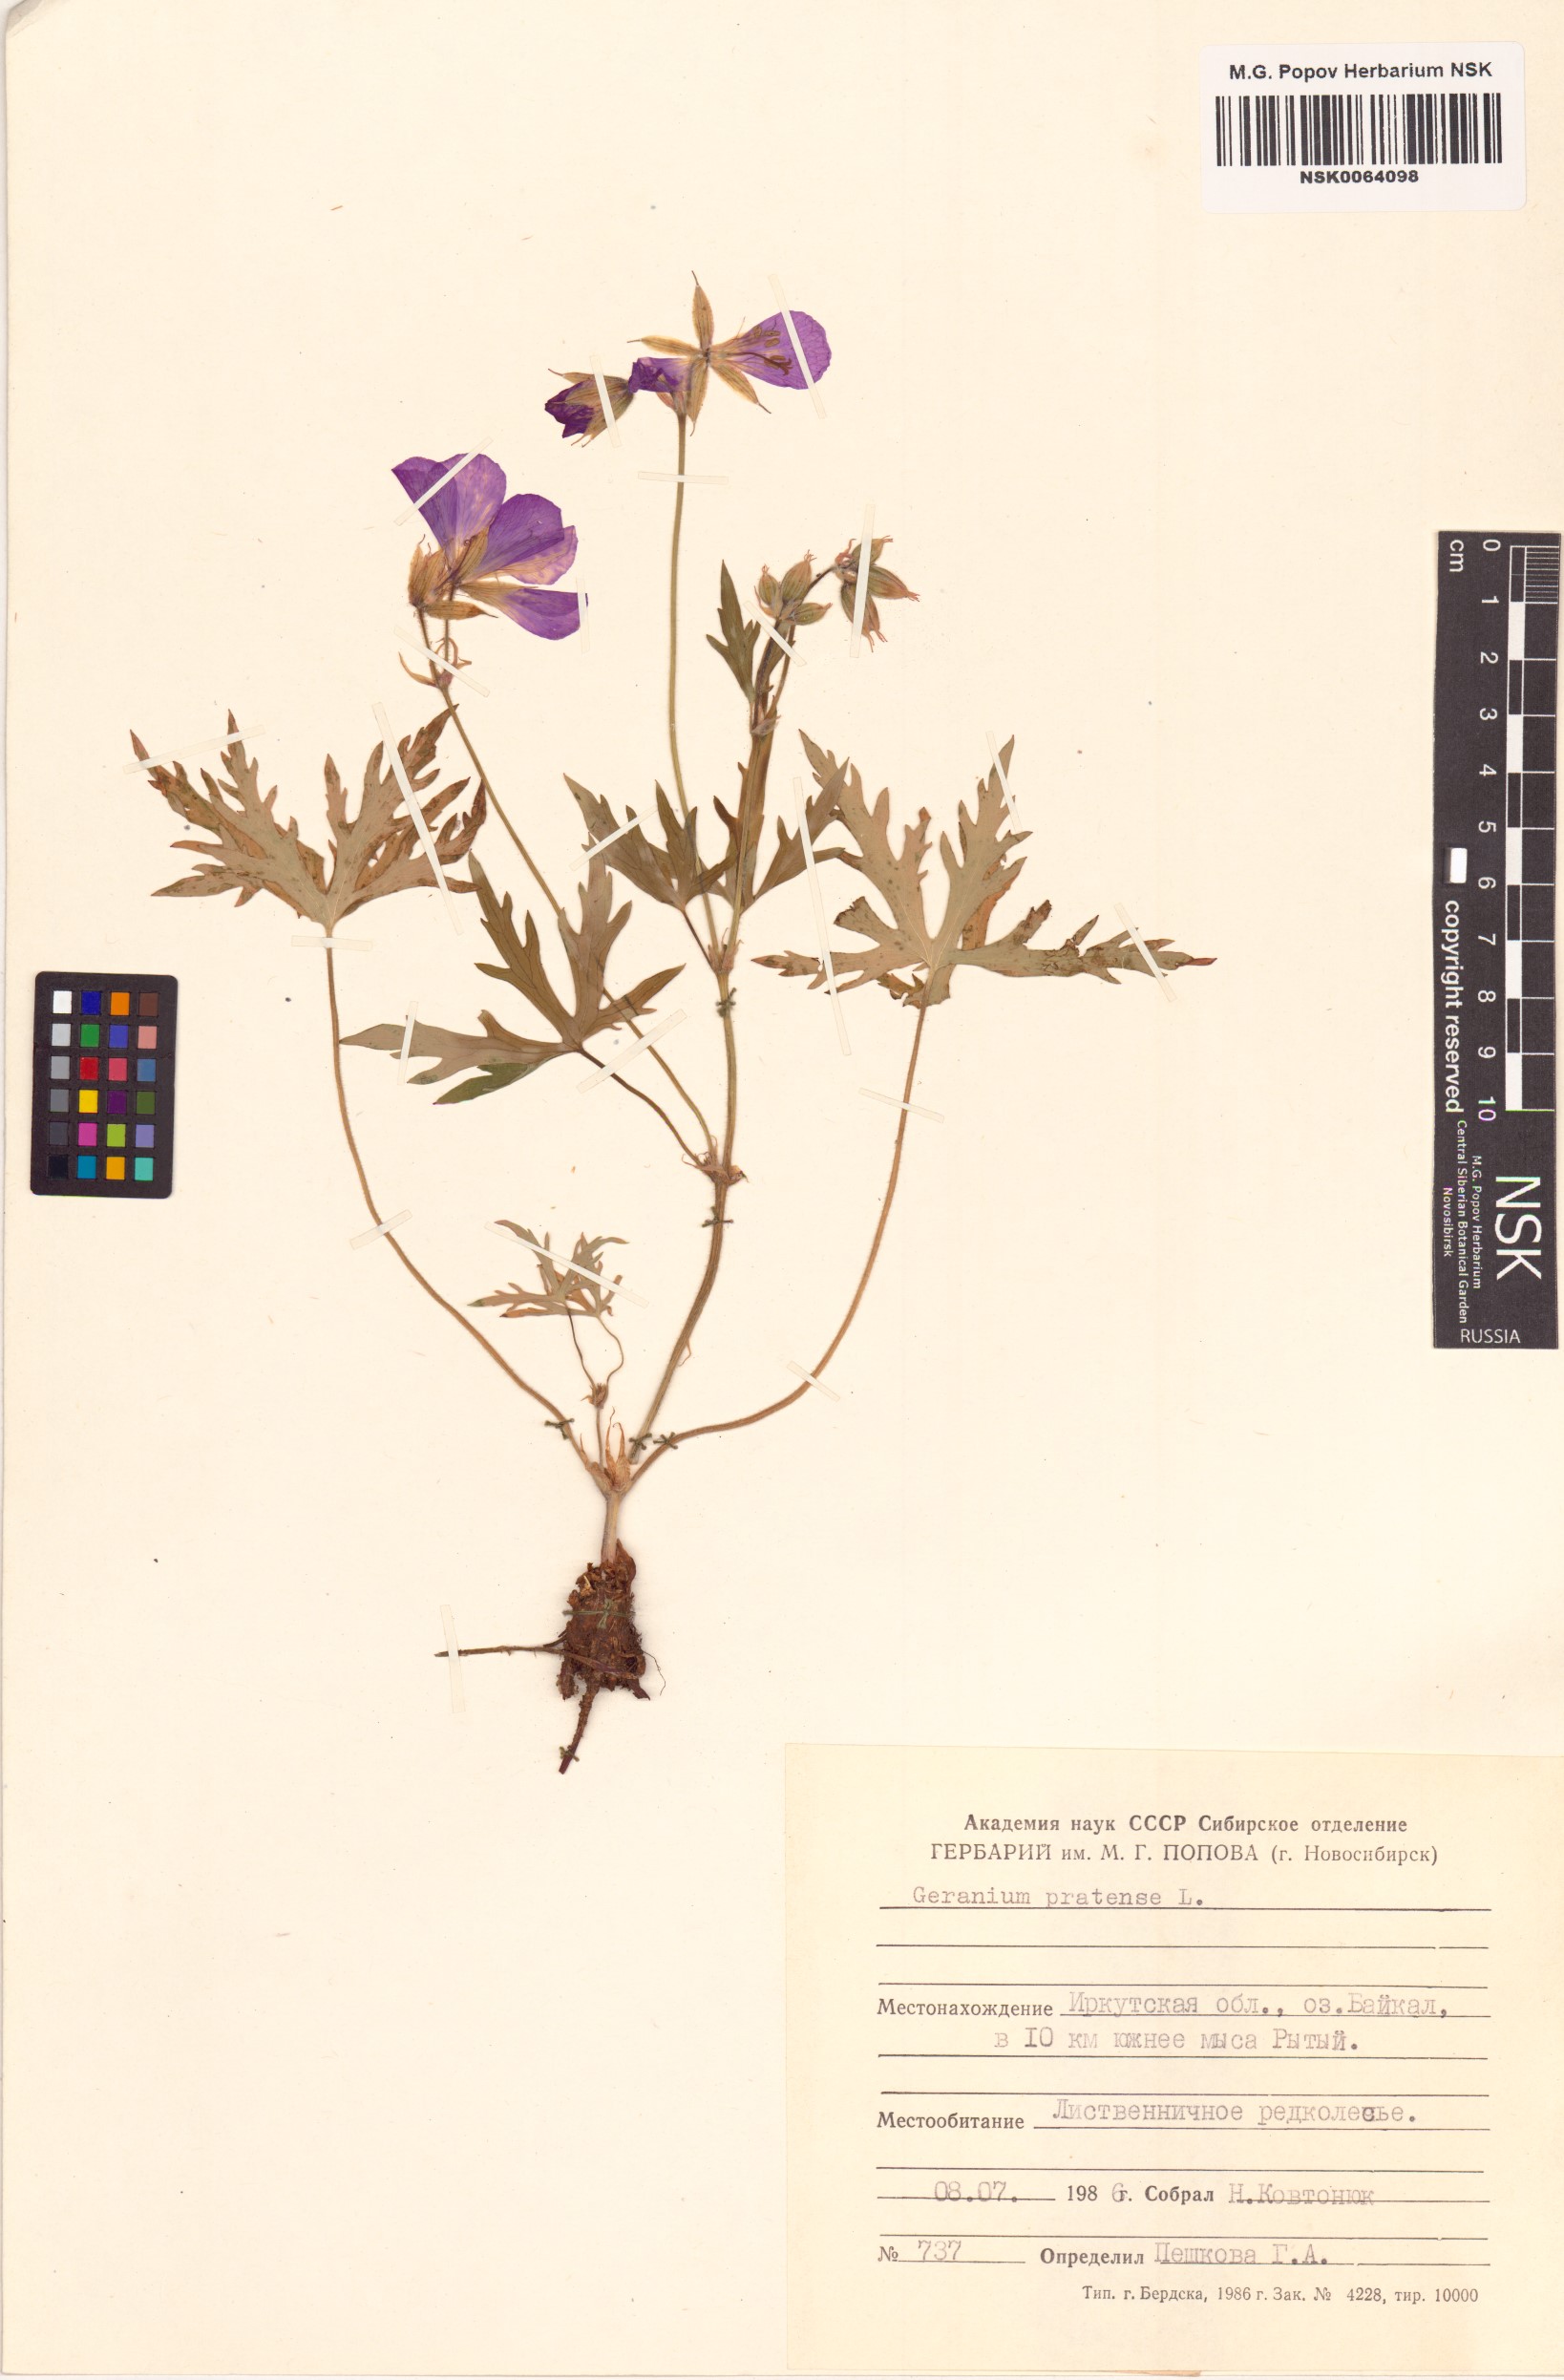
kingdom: Plantae
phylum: Tracheophyta
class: Magnoliopsida
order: Geraniales
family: Geraniaceae
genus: Geranium
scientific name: Geranium pratense
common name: Meadow crane's-bill
